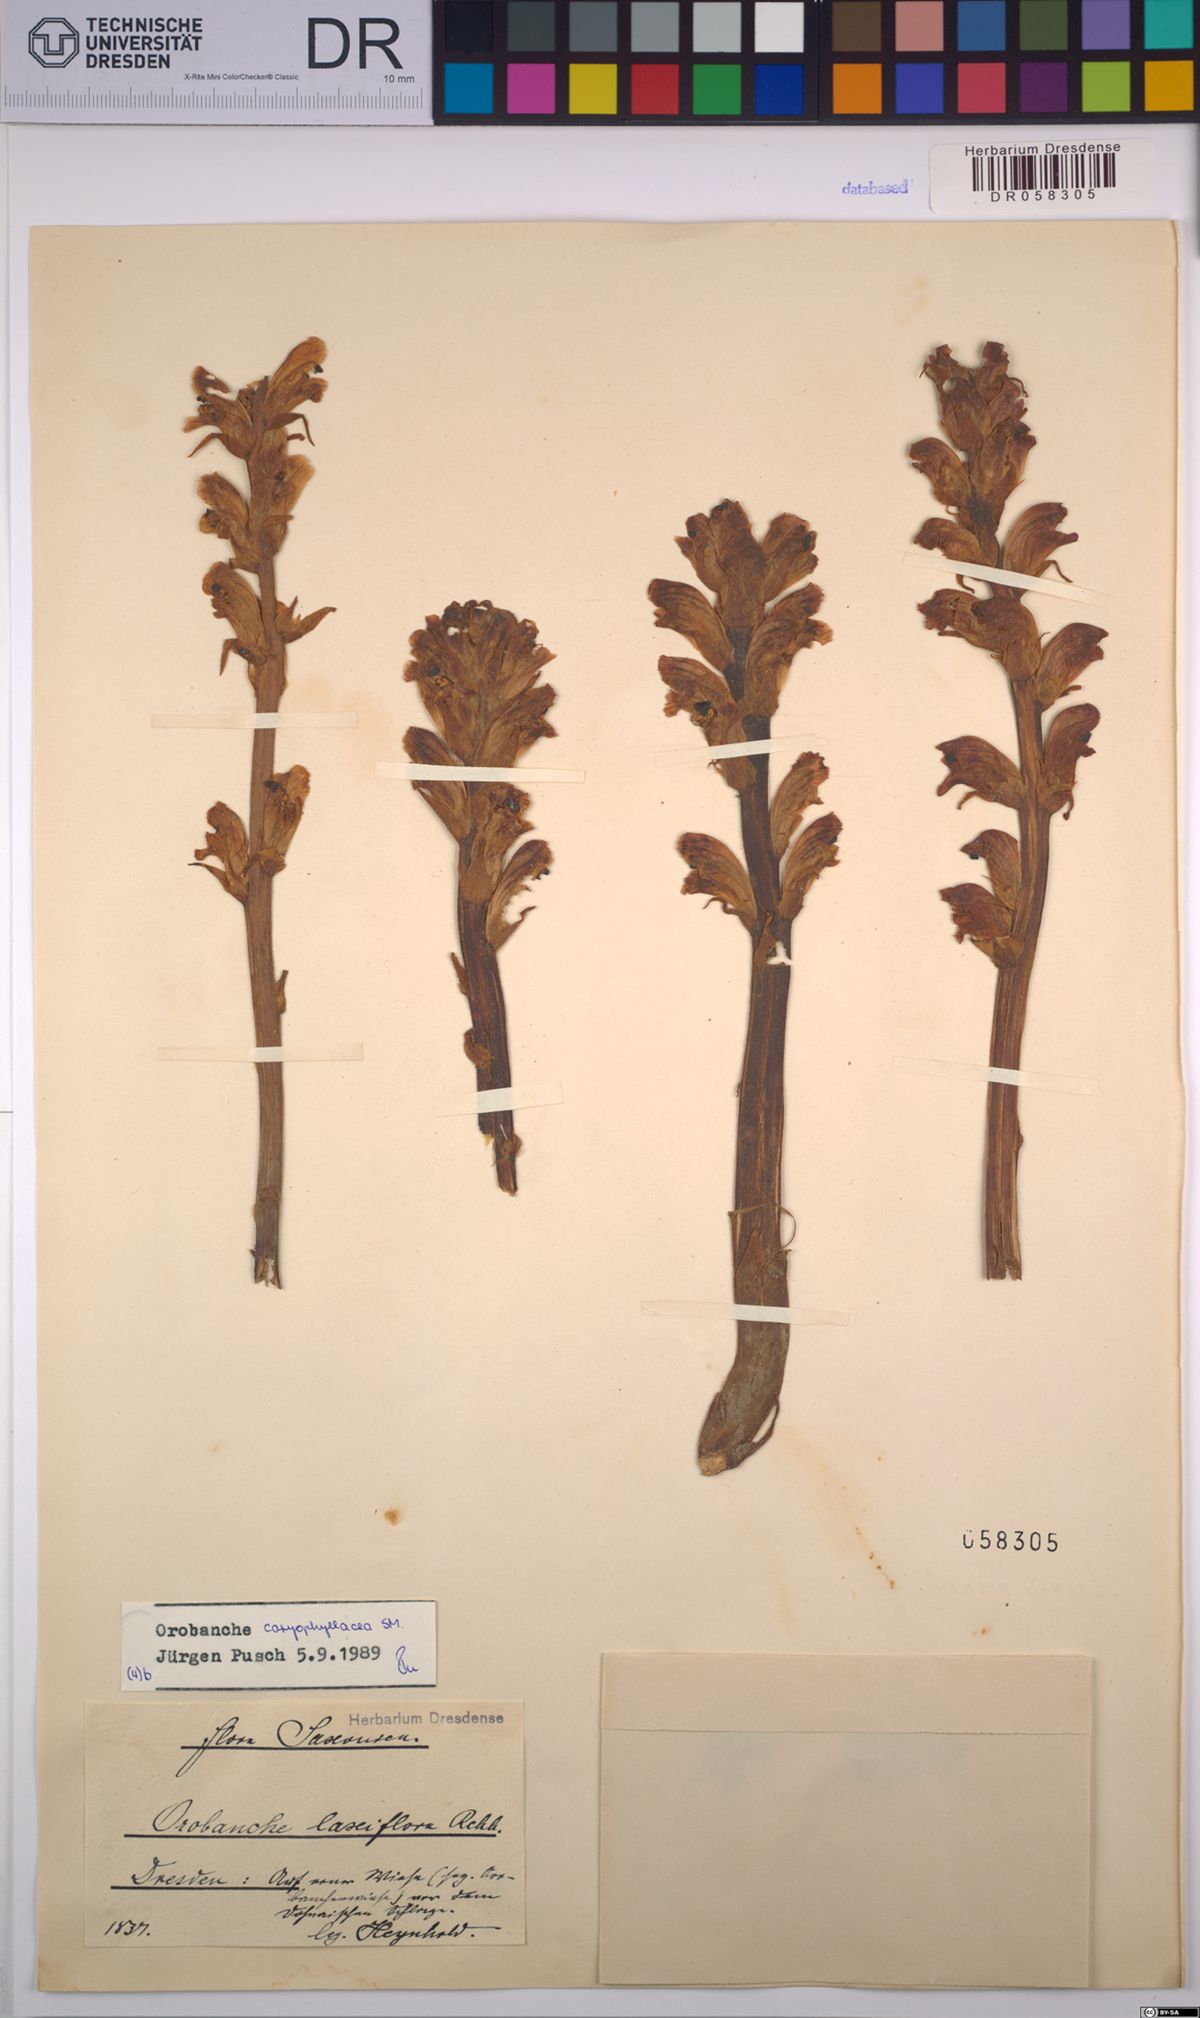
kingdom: Plantae
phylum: Tracheophyta
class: Magnoliopsida
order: Lamiales
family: Orobanchaceae
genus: Orobanche
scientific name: Orobanche caryophyllacea
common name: Bedstraw broomrape
